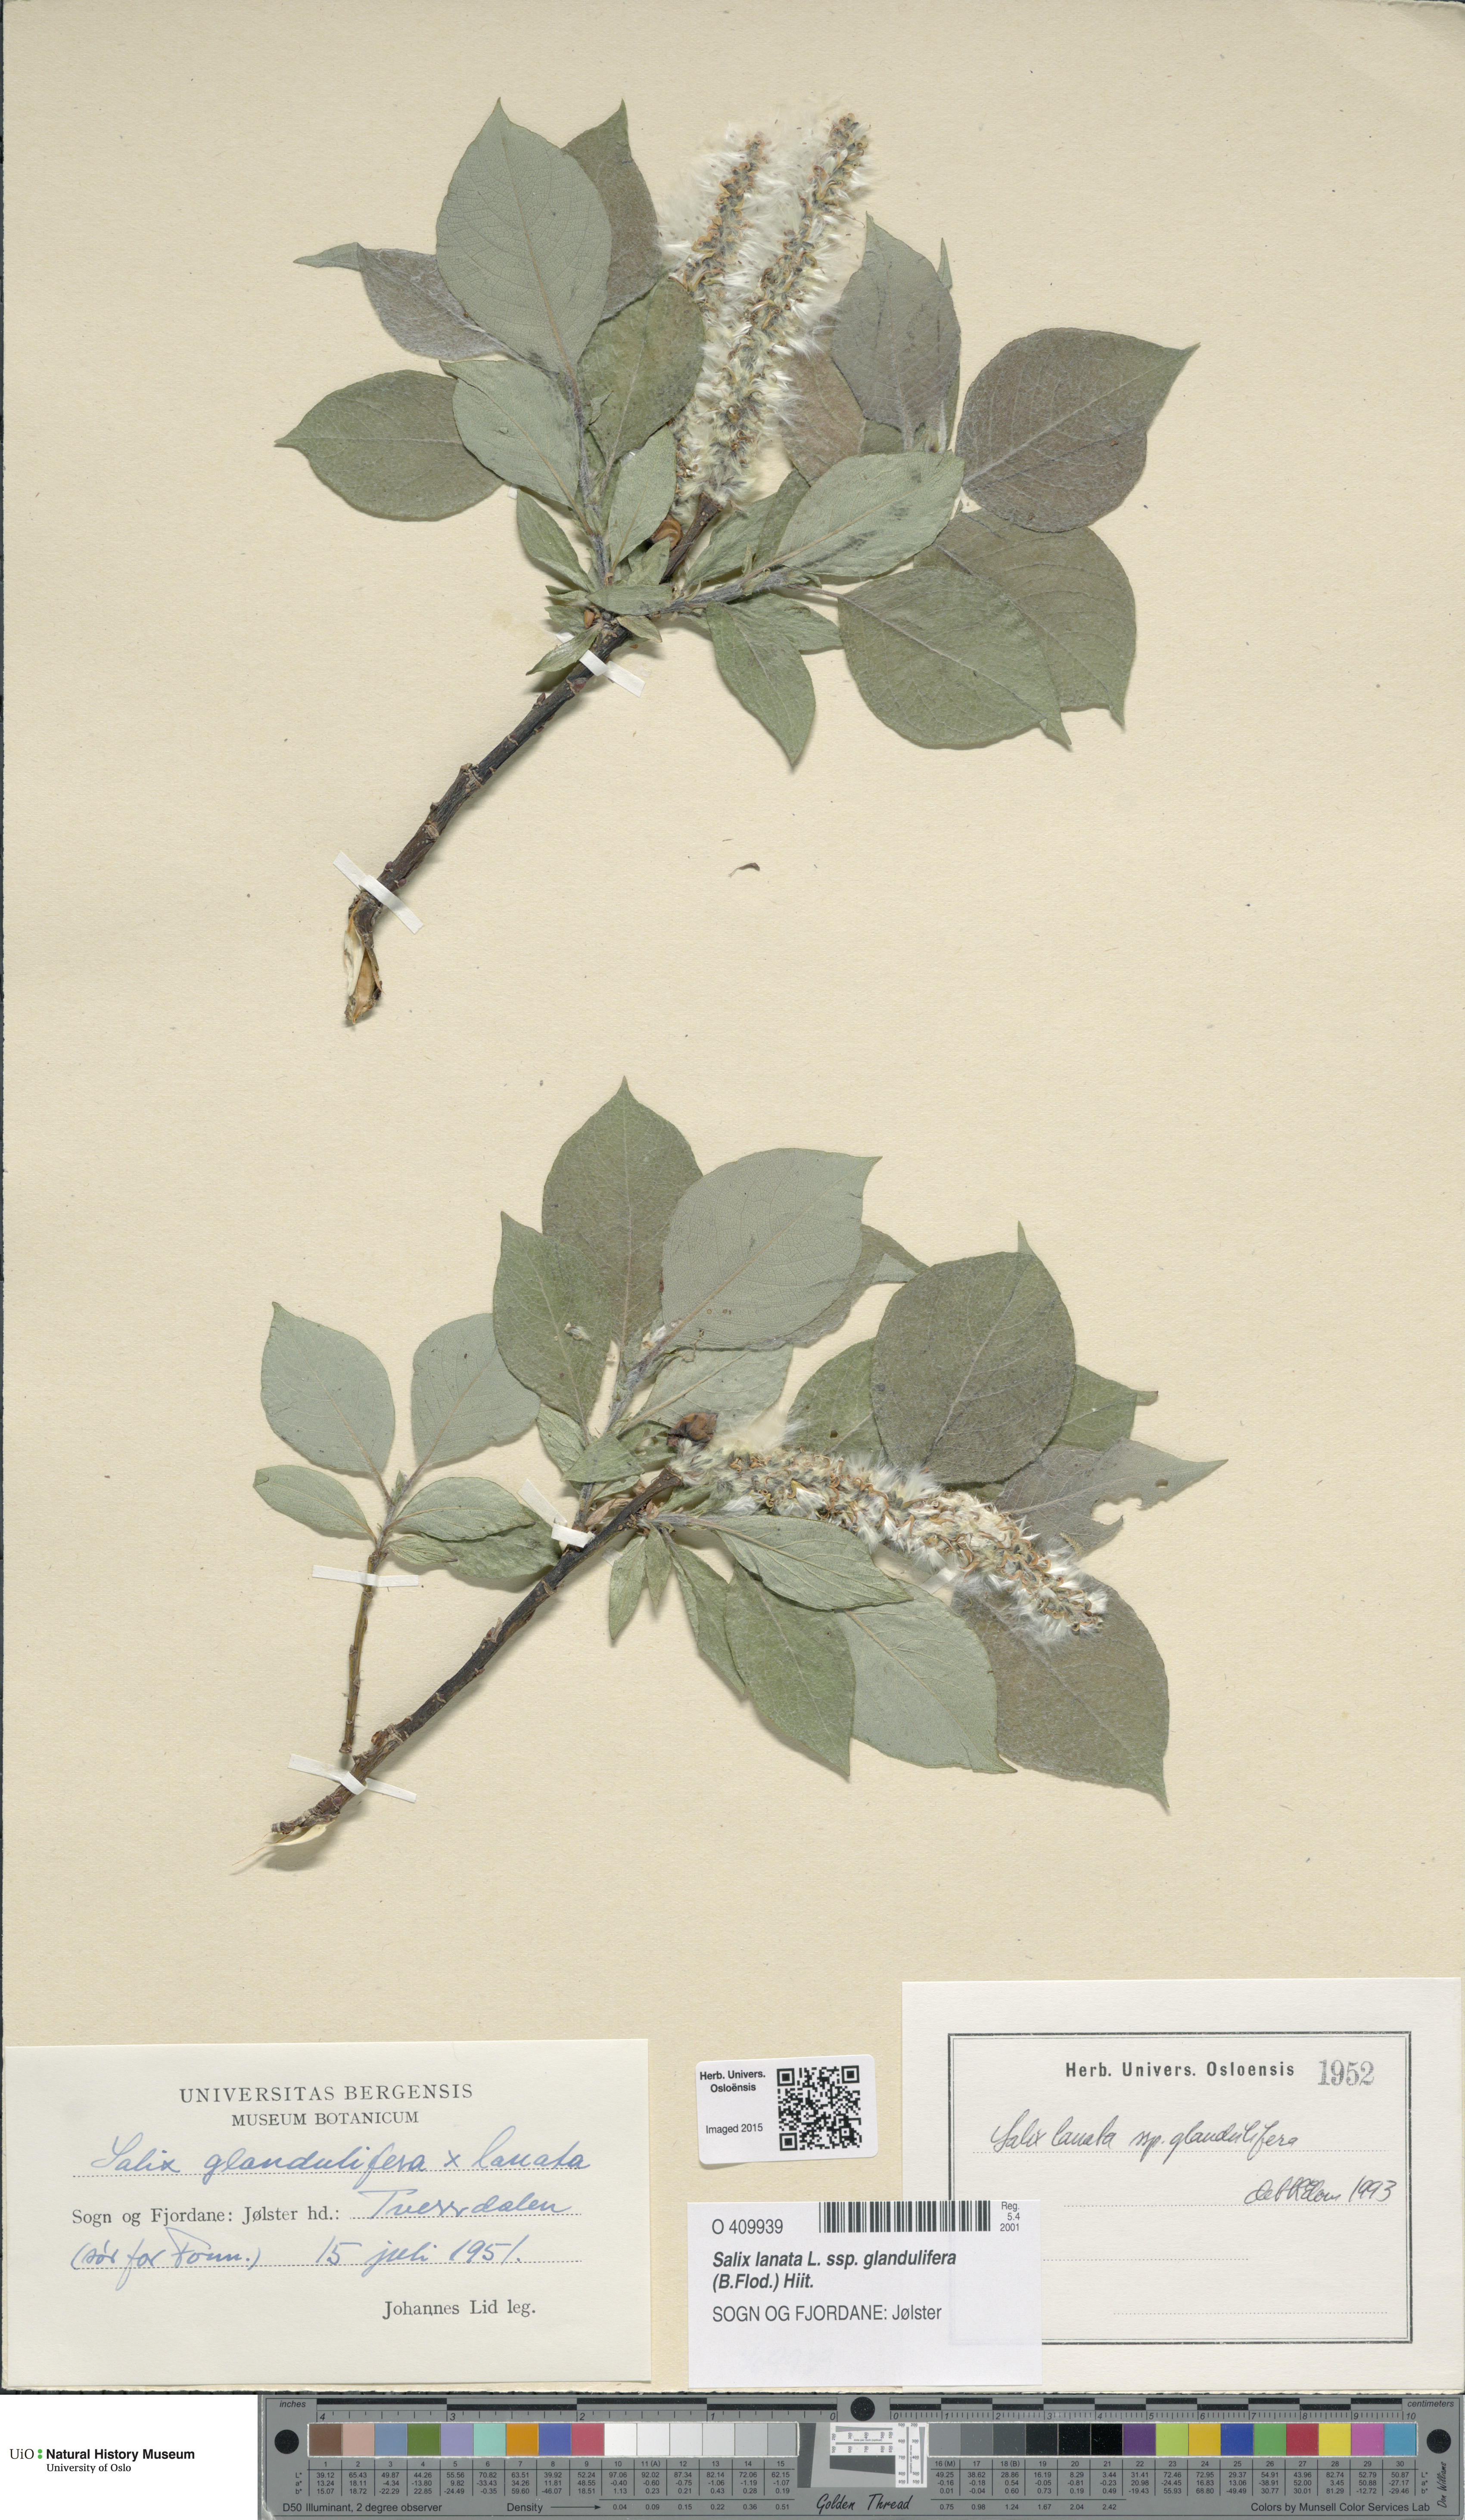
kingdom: Plantae
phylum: Tracheophyta
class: Magnoliopsida
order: Malpighiales
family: Salicaceae
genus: Salix
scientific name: Salix lanata
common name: Woolly willow
